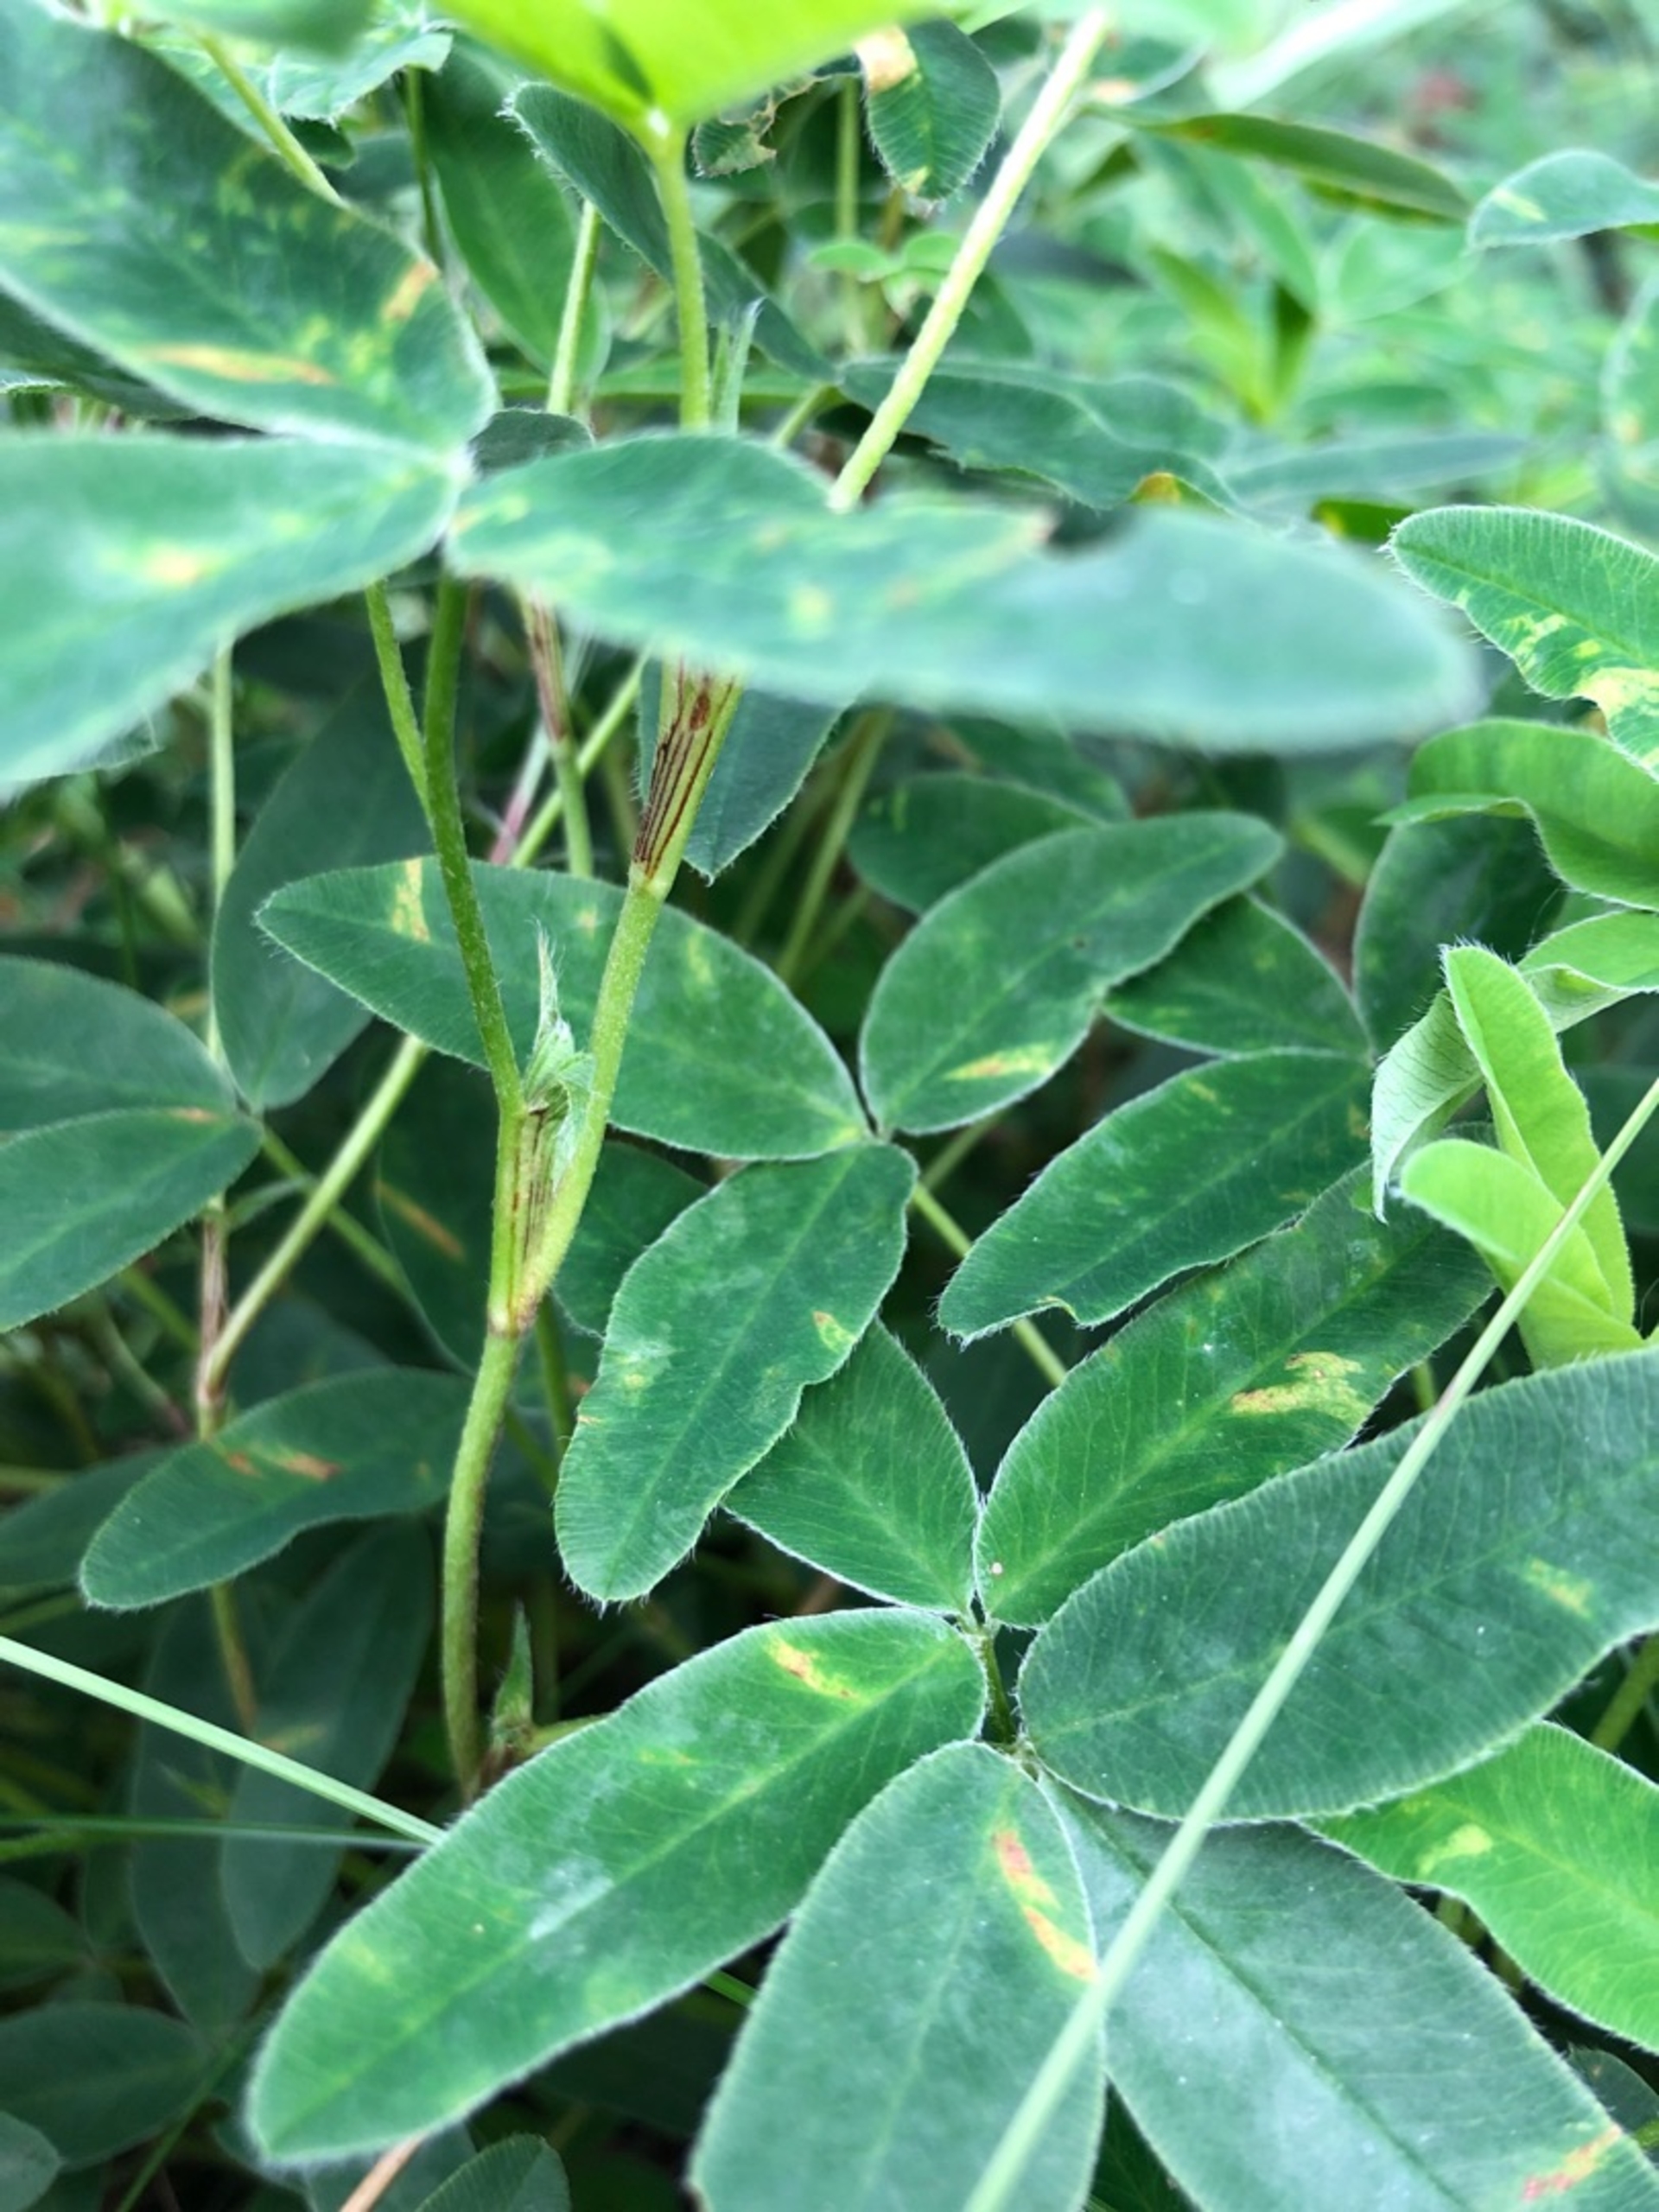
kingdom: Plantae
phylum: Tracheophyta
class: Magnoliopsida
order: Fabales
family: Fabaceae
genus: Trifolium
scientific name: Trifolium medium
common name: Bugtet kløver
